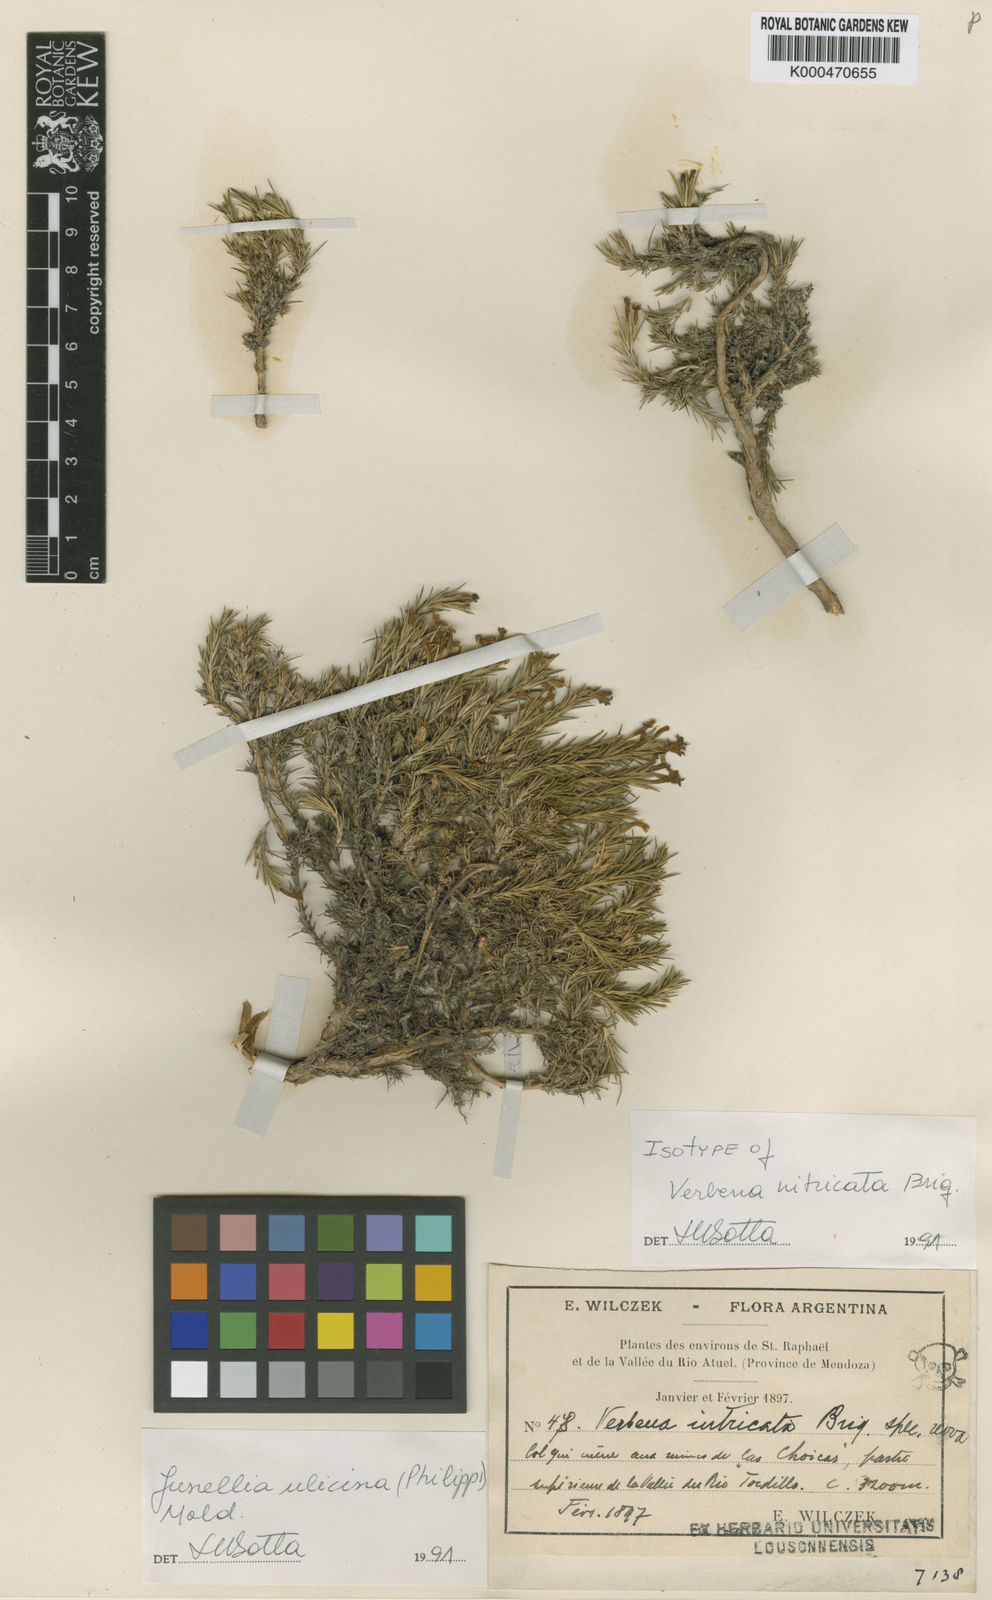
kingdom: Plantae
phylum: Tracheophyta
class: Magnoliopsida
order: Lamiales
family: Verbenaceae
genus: Junellia
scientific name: Junellia ulicina
